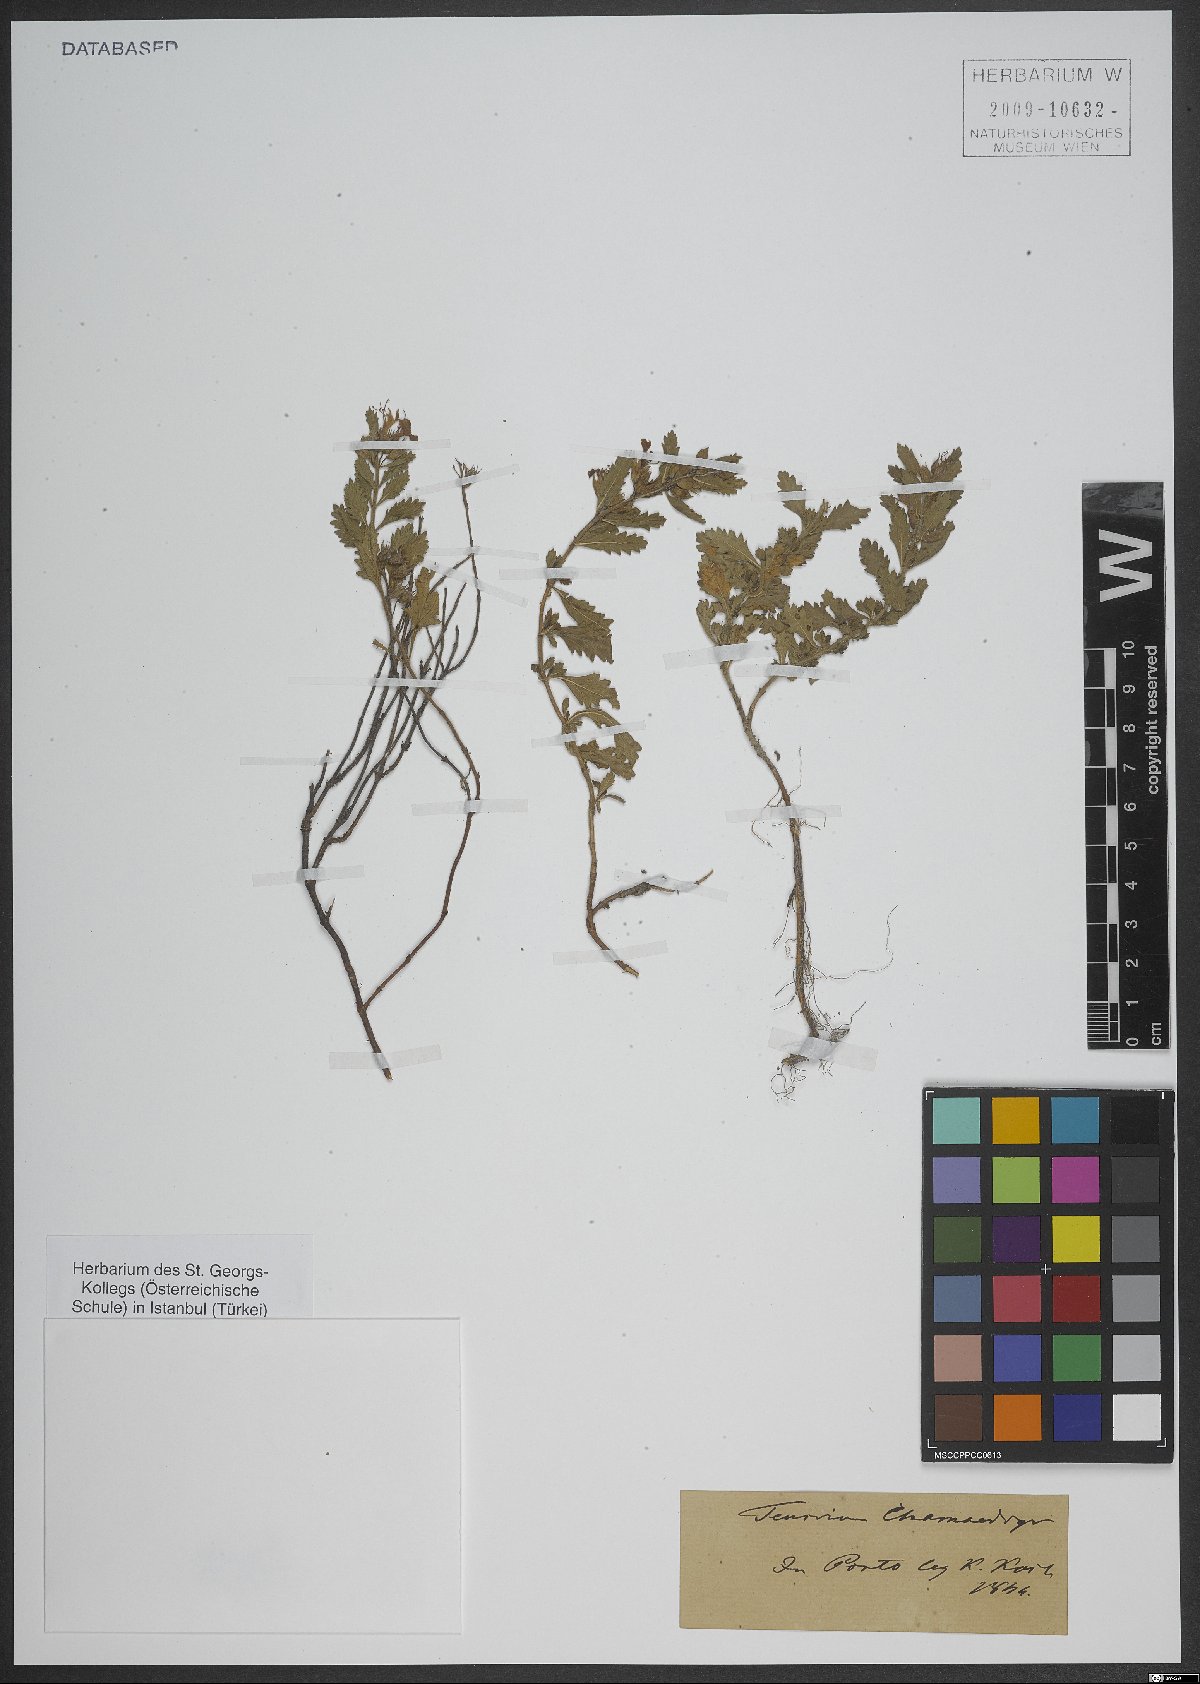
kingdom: Plantae
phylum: Tracheophyta
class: Magnoliopsida
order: Lamiales
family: Lamiaceae
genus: Teucrium
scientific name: Teucrium chamaedrys
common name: Wall germander
